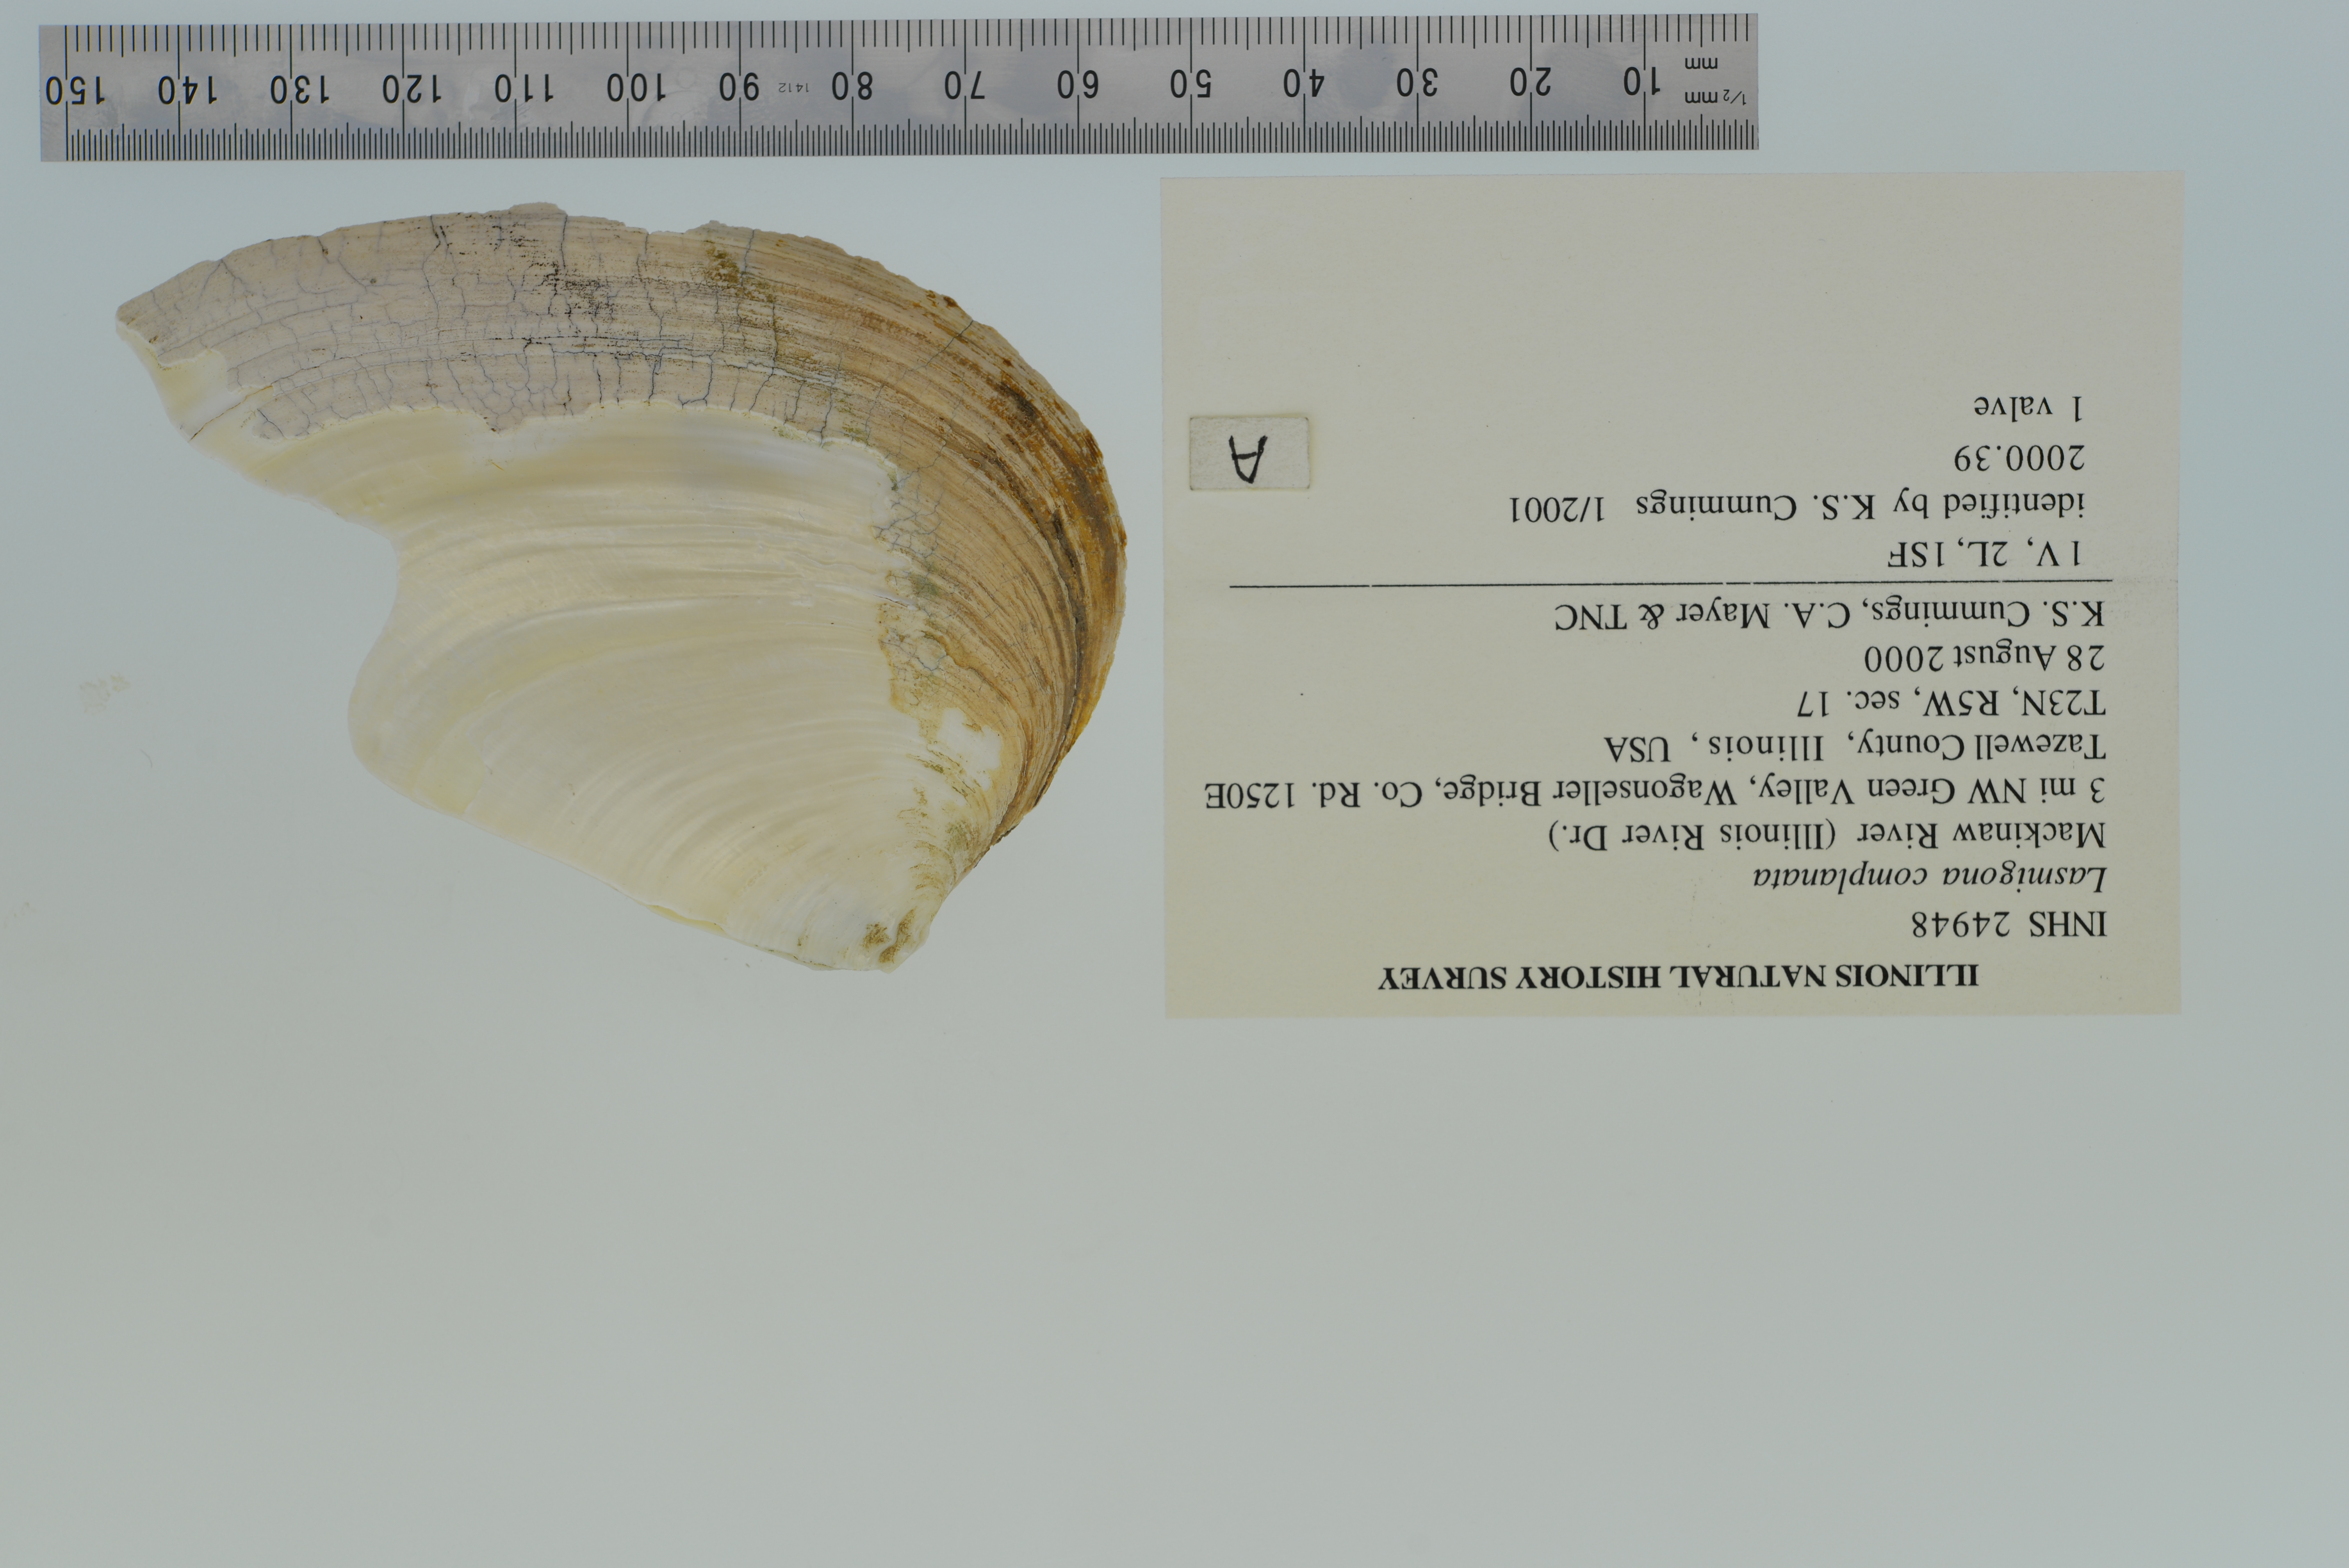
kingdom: Animalia
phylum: Mollusca
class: Bivalvia
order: Unionida
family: Unionidae
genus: Lasmigona
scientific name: Lasmigona complanata
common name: White heelsplitter
